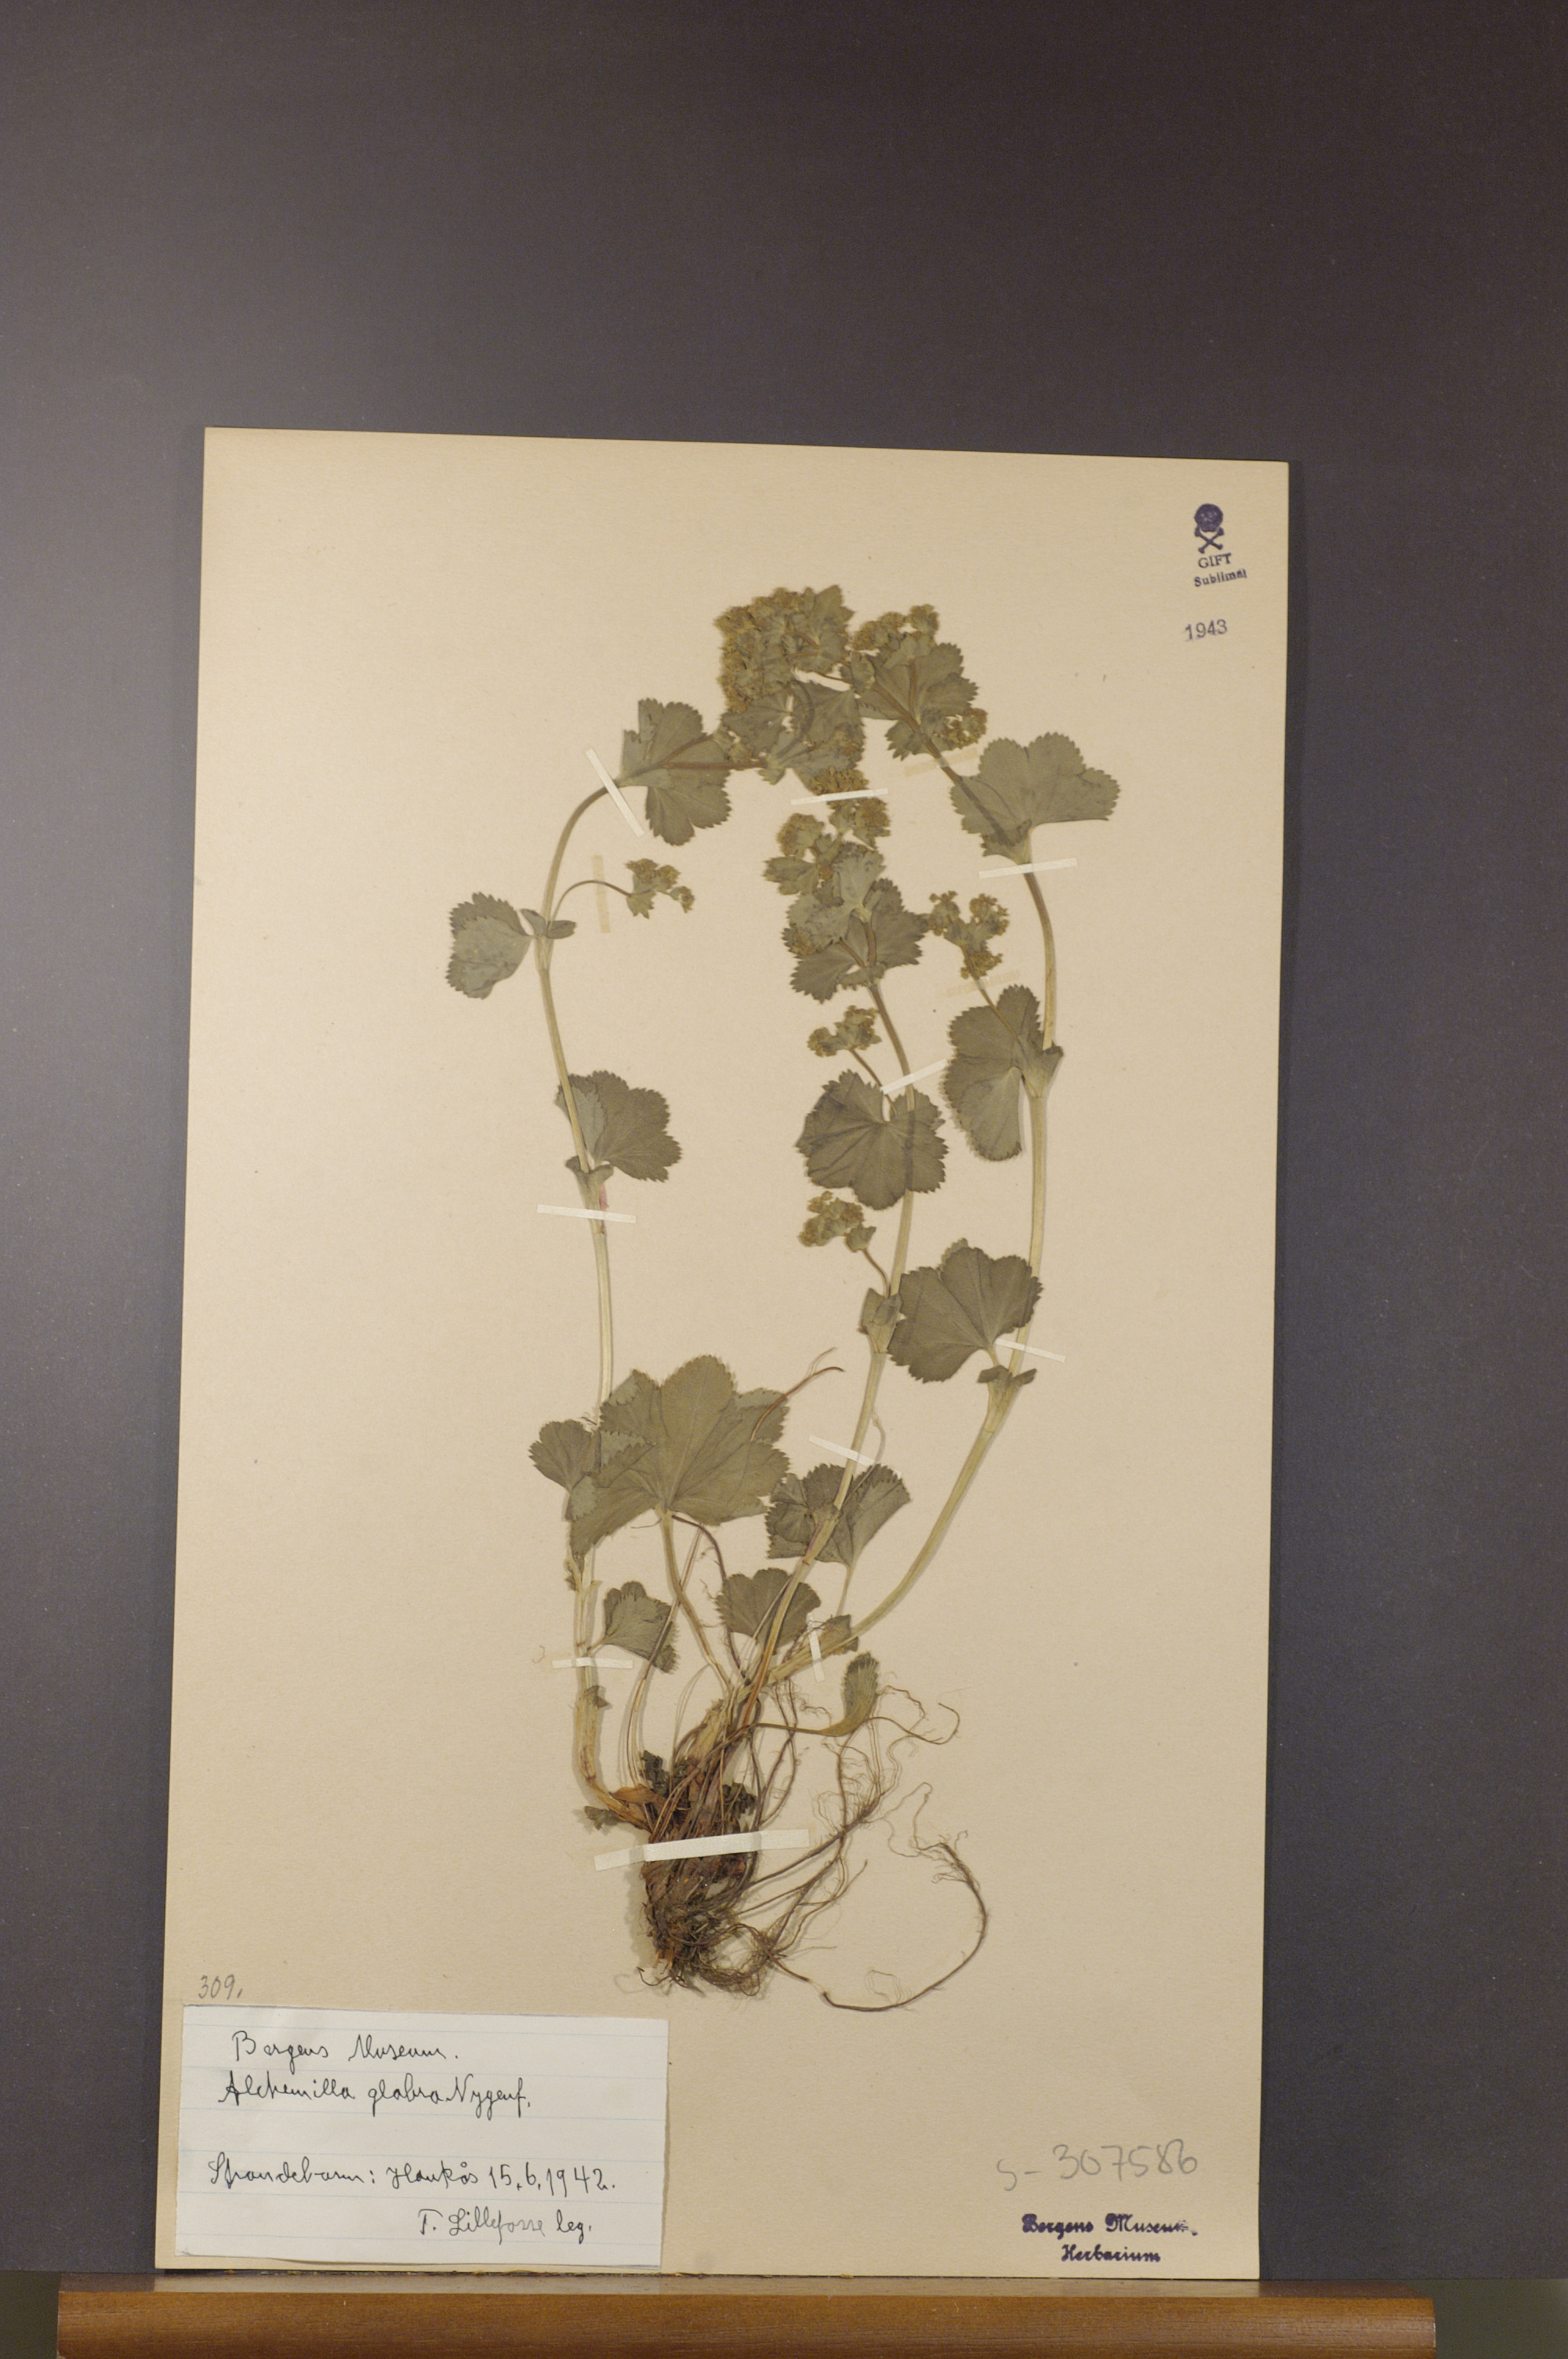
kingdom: Plantae
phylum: Tracheophyta
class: Magnoliopsida
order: Rosales
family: Rosaceae
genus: Alchemilla
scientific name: Alchemilla glabra
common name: Smooth lady's-mantle
